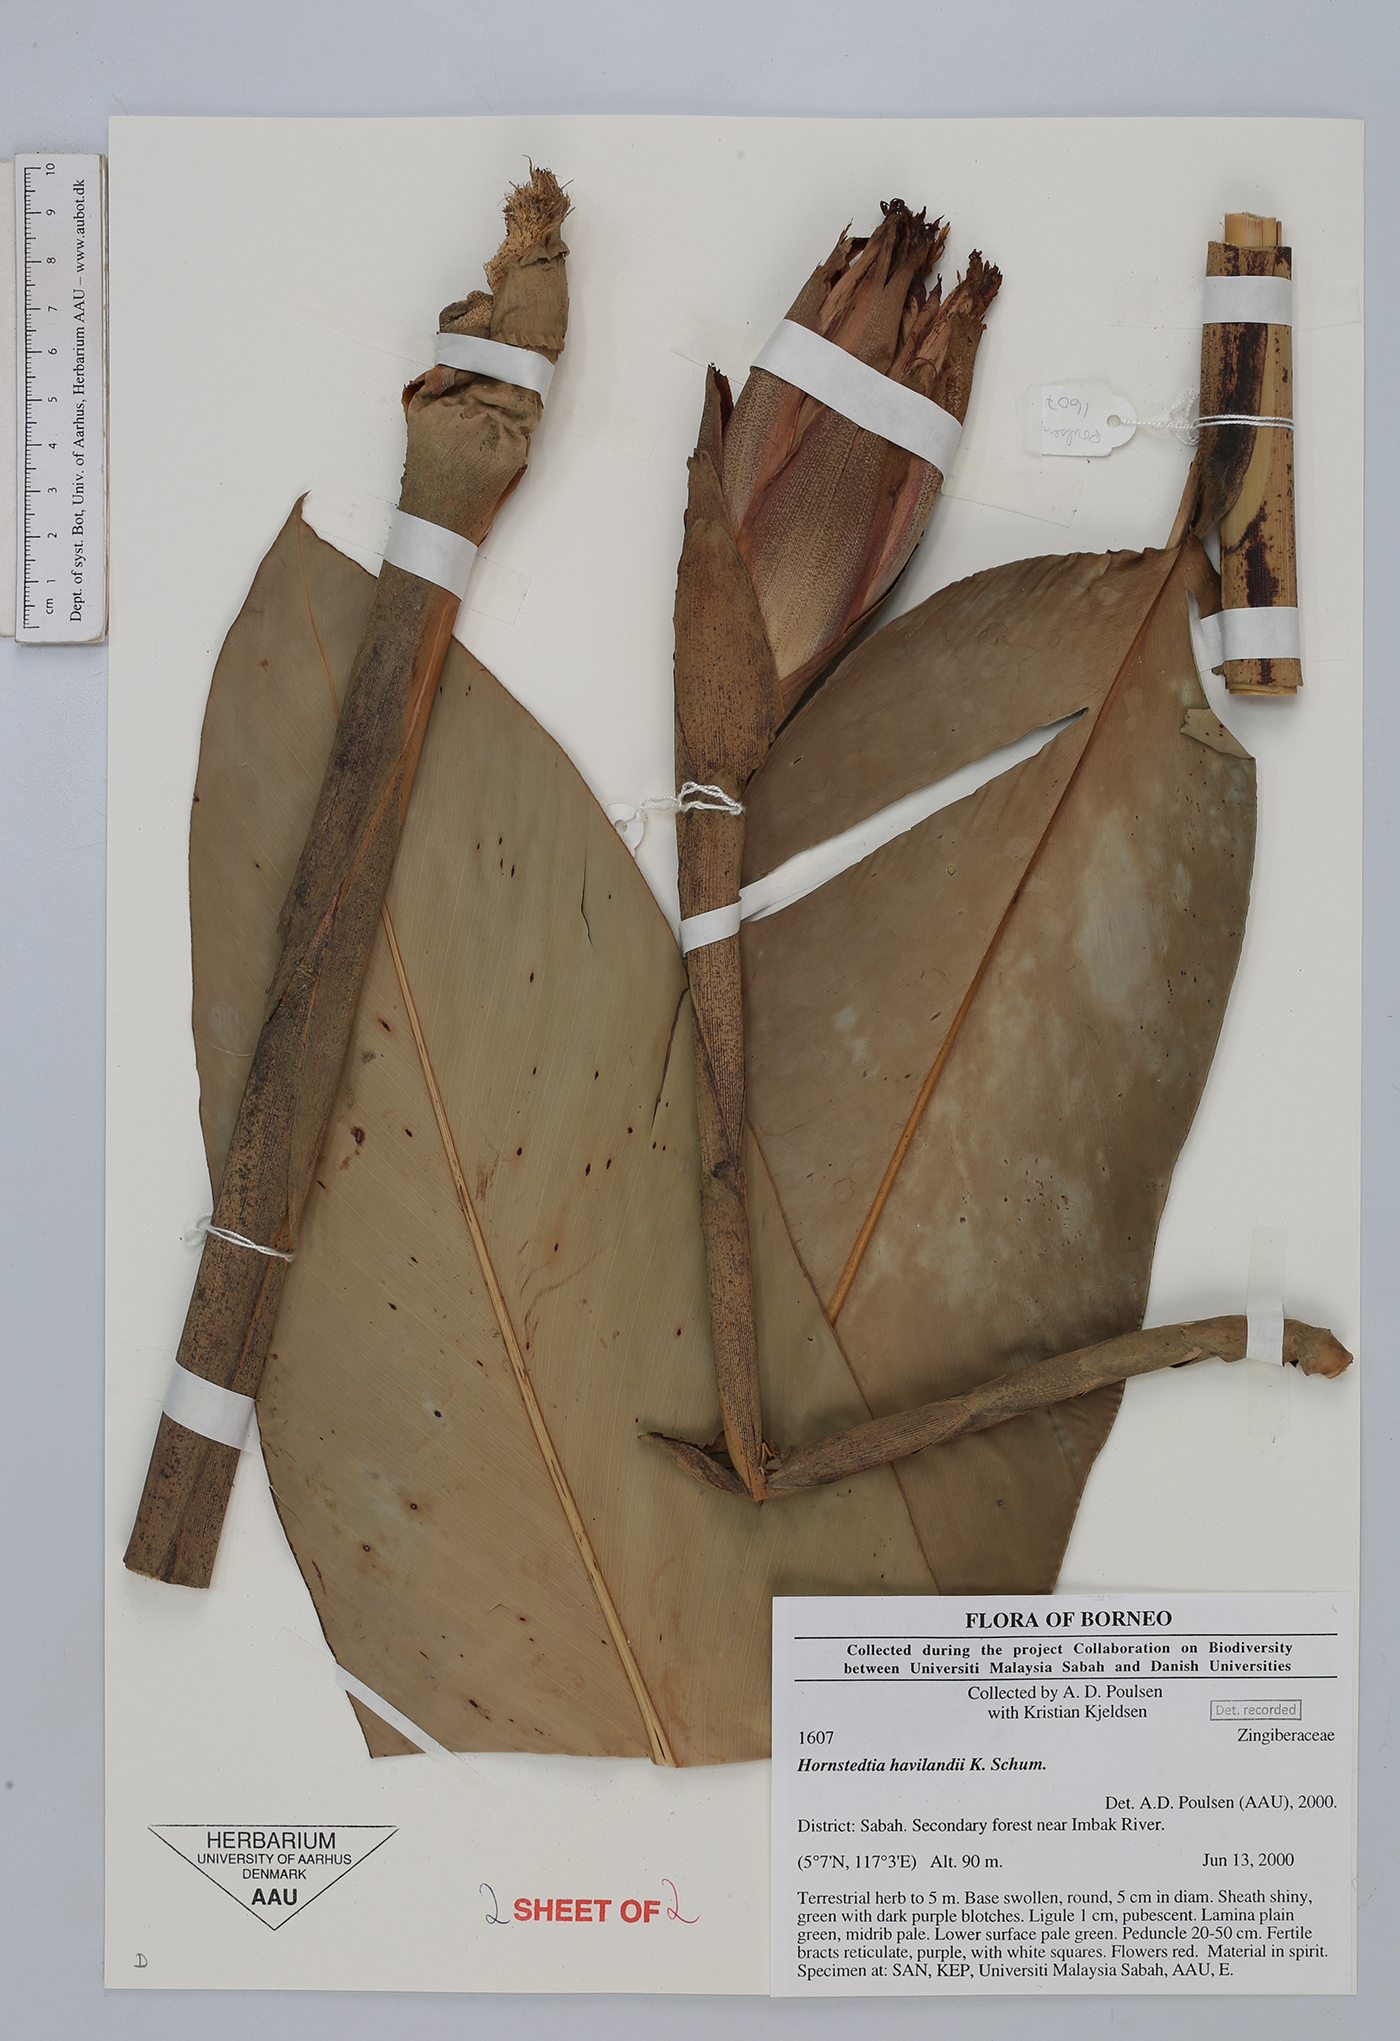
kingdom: Plantae
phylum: Tracheophyta
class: Liliopsida
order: Zingiberales
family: Zingiberaceae
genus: Hornstedtia
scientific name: Hornstedtia havilandii
